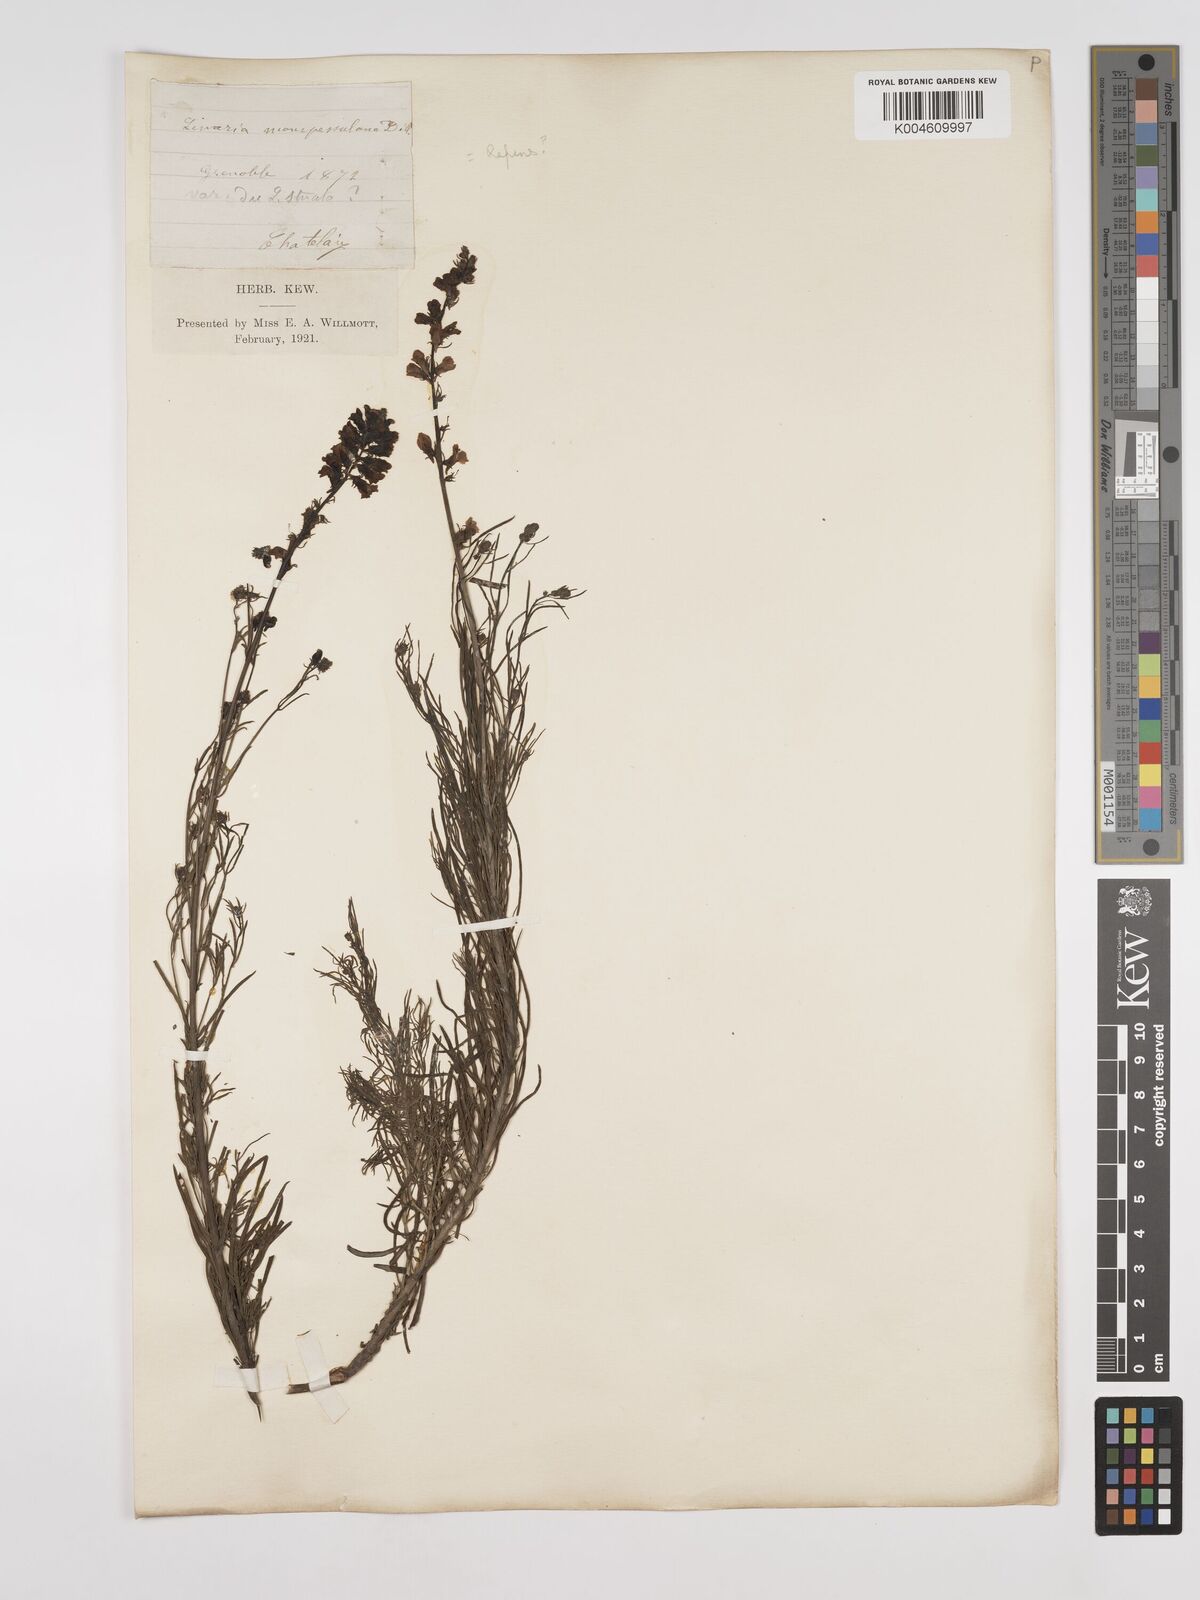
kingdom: Plantae
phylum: Tracheophyta
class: Magnoliopsida
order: Lamiales
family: Plantaginaceae
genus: Linaria
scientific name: Linaria repens
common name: Pale toadflax
